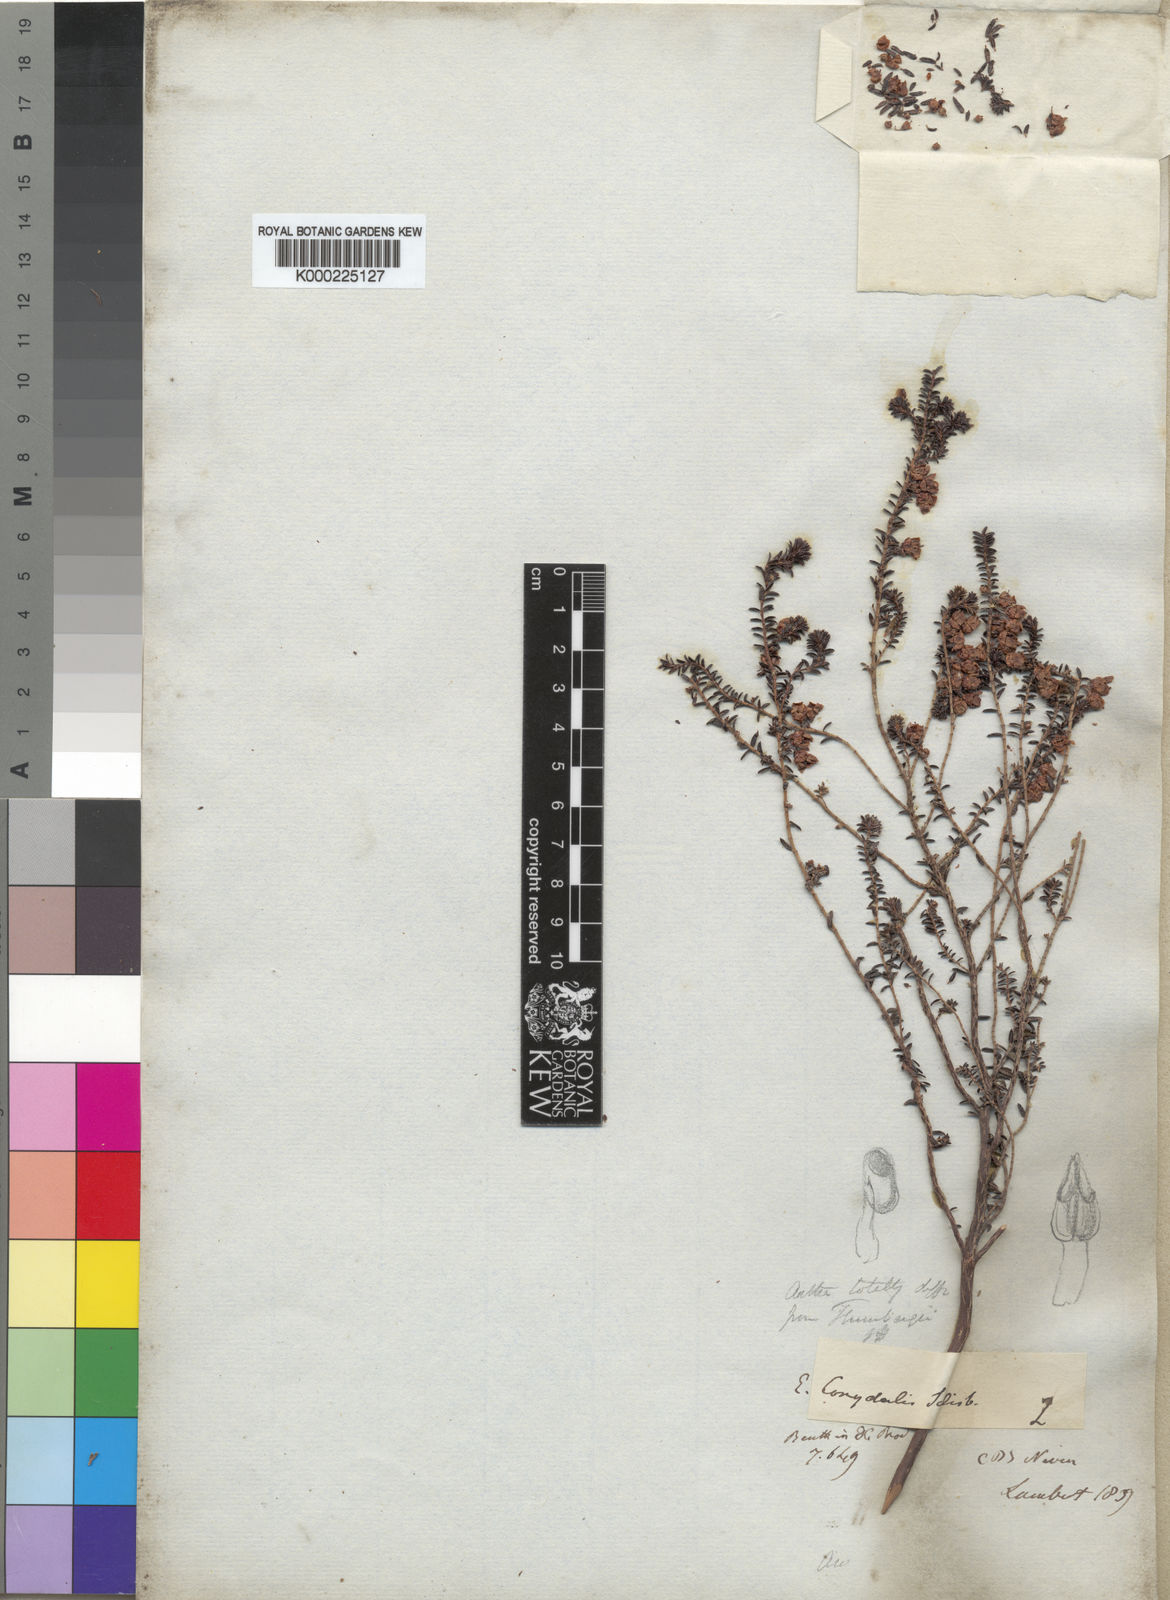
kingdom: Plantae
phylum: Tracheophyta
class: Magnoliopsida
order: Ericales
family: Ericaceae
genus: Erica
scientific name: Erica corydalis
